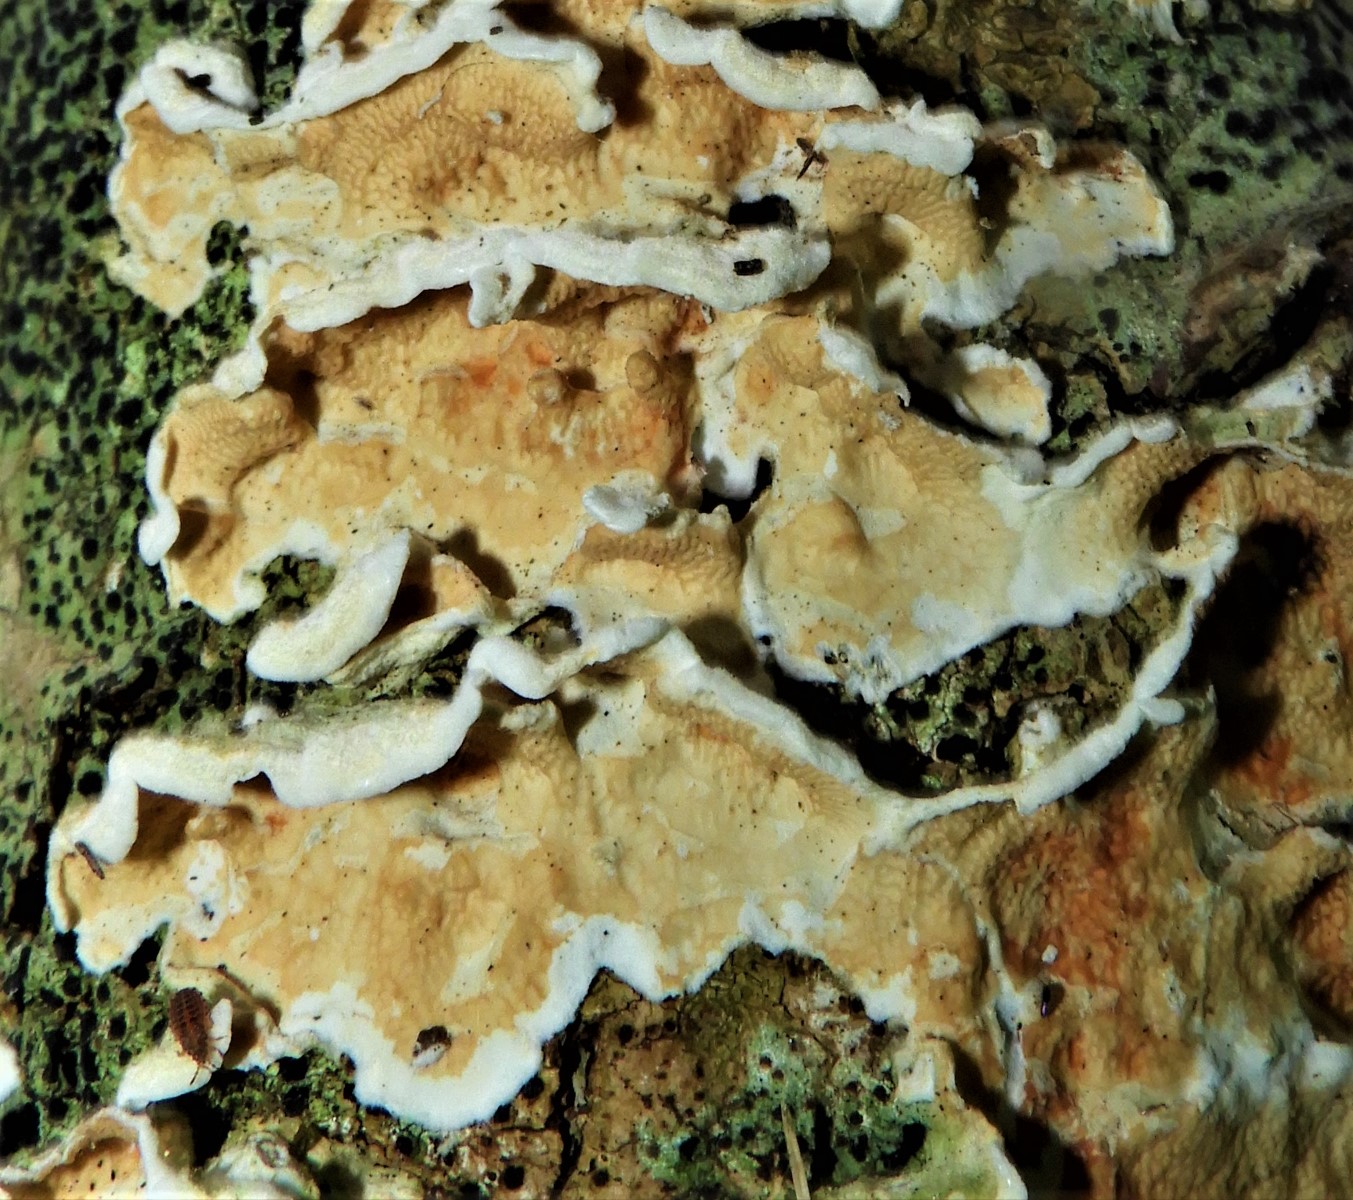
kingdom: Fungi
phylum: Basidiomycota
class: Agaricomycetes
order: Polyporales
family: Irpicaceae
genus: Byssomerulius
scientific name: Byssomerulius corium
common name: læder-åresvamp
